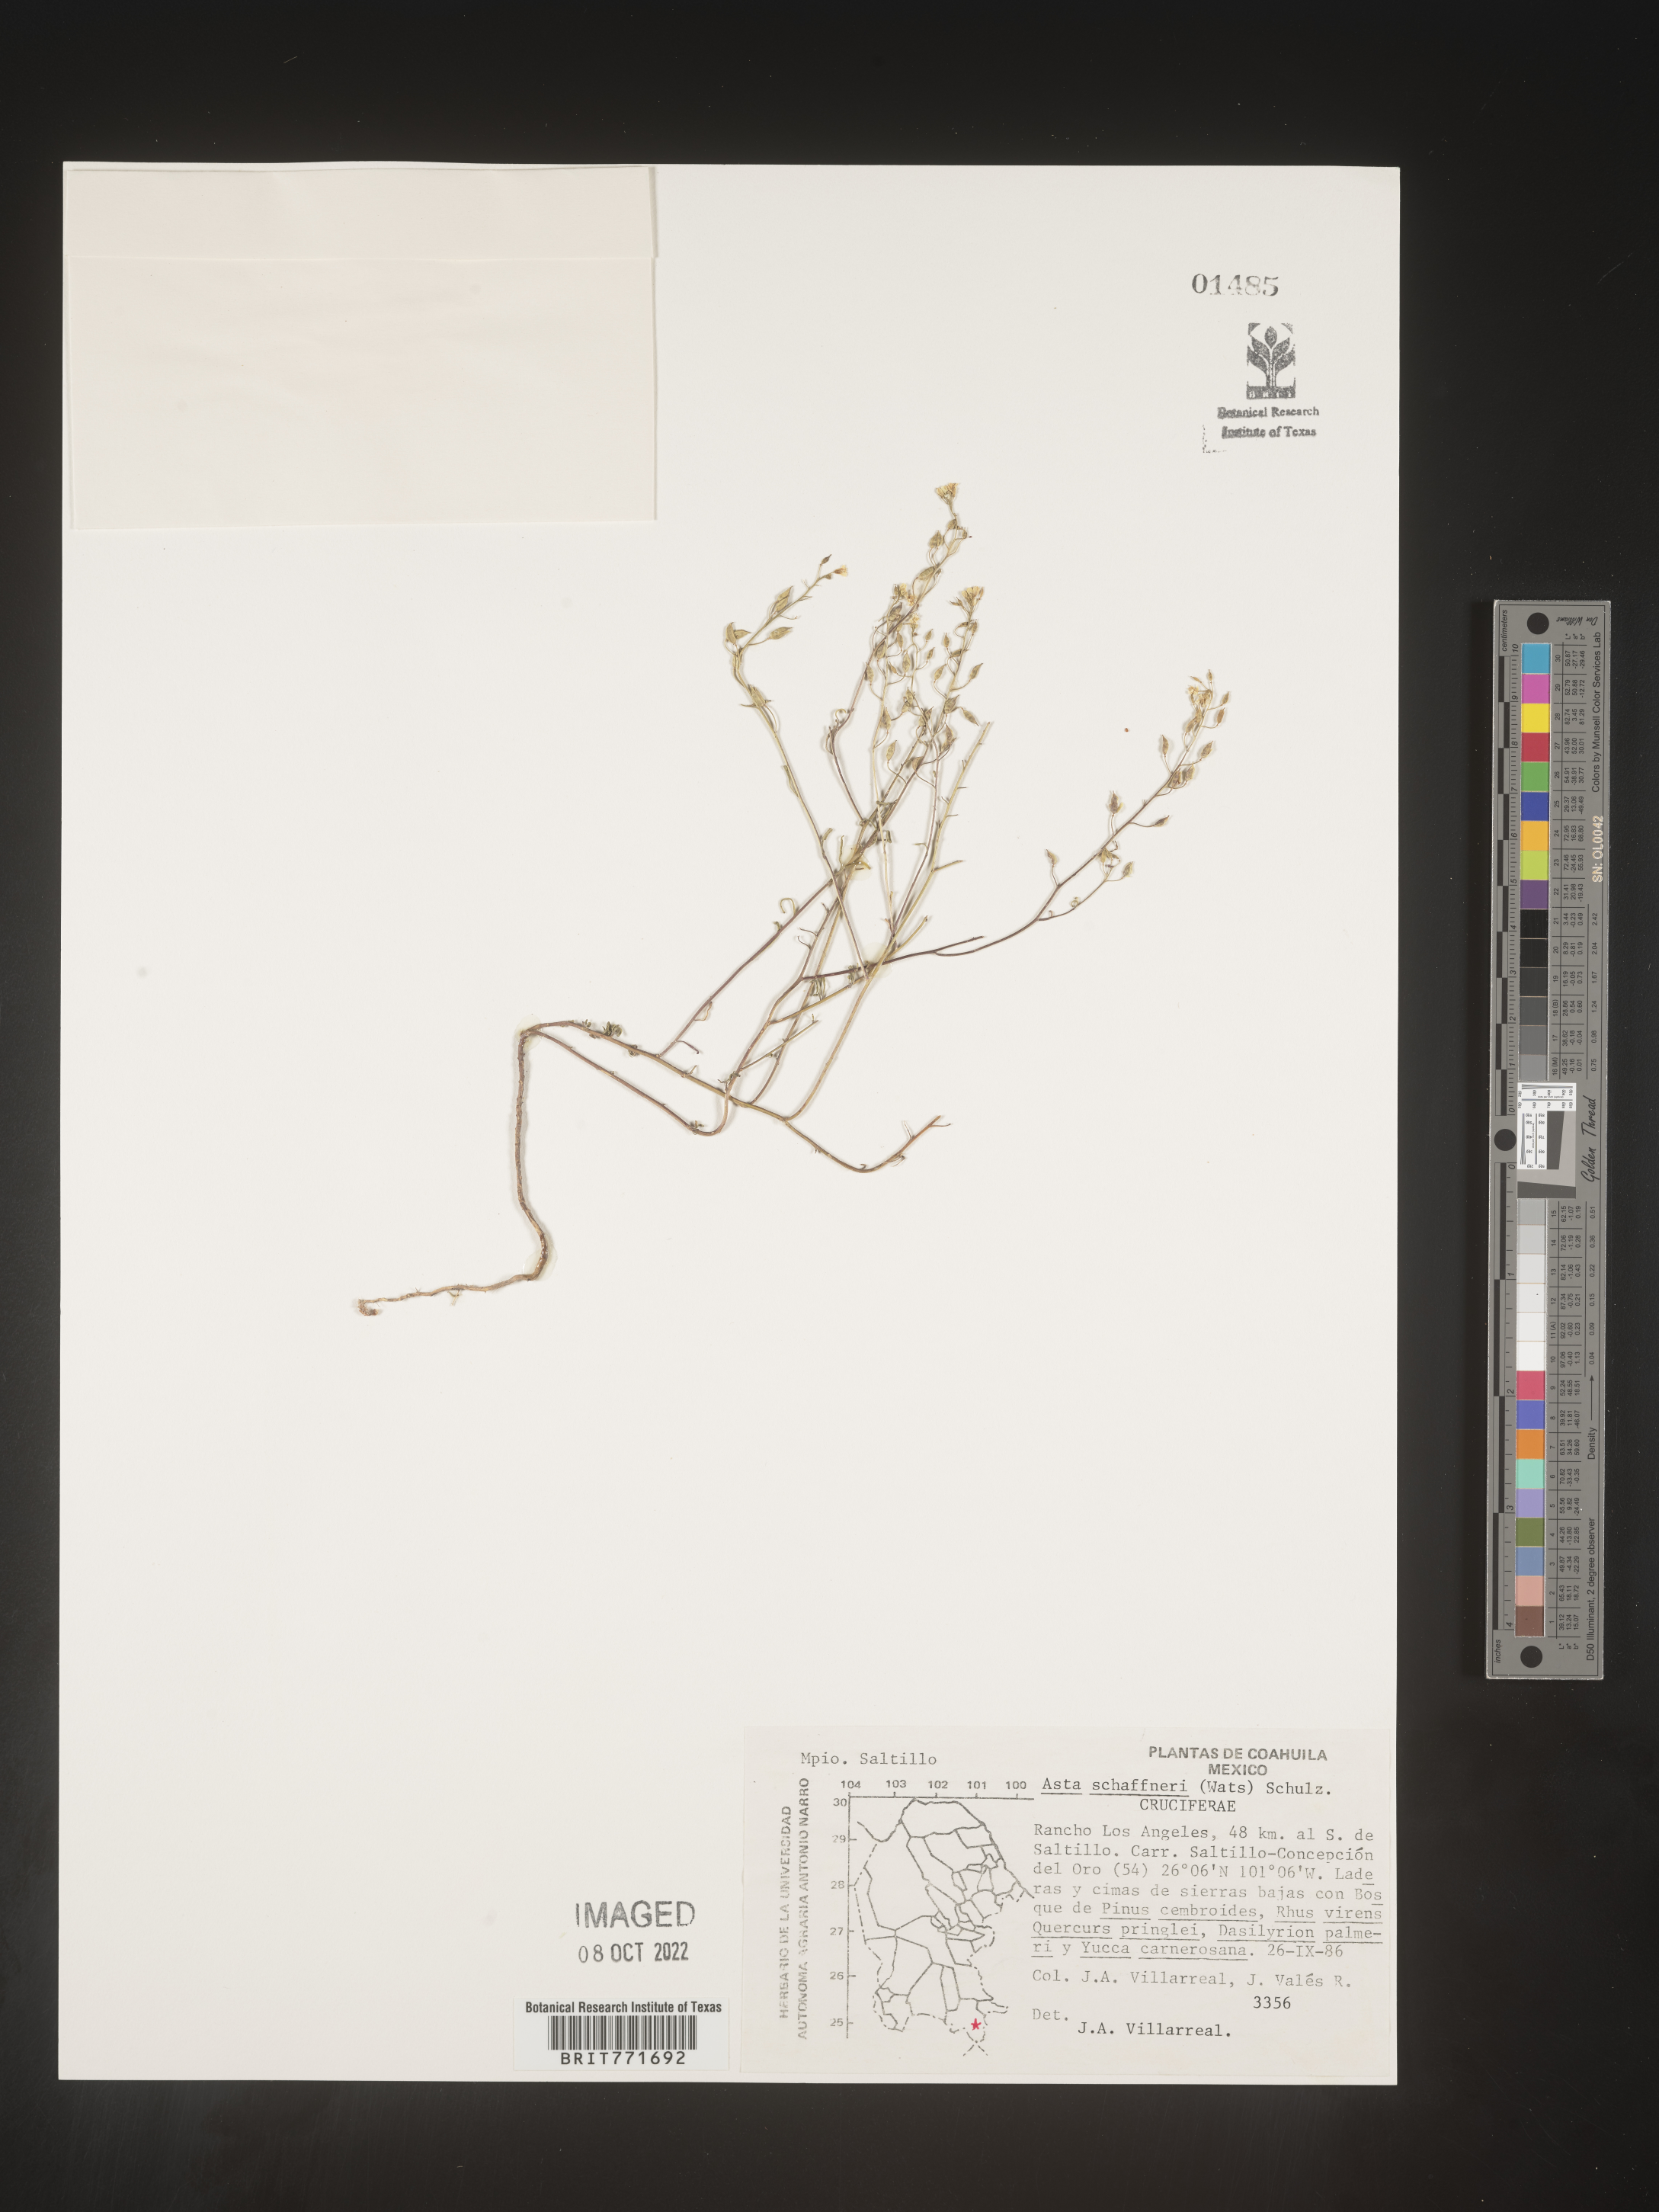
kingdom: Plantae
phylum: Tracheophyta
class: Magnoliopsida
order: Brassicales
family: Brassicaceae
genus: Asta
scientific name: Asta
